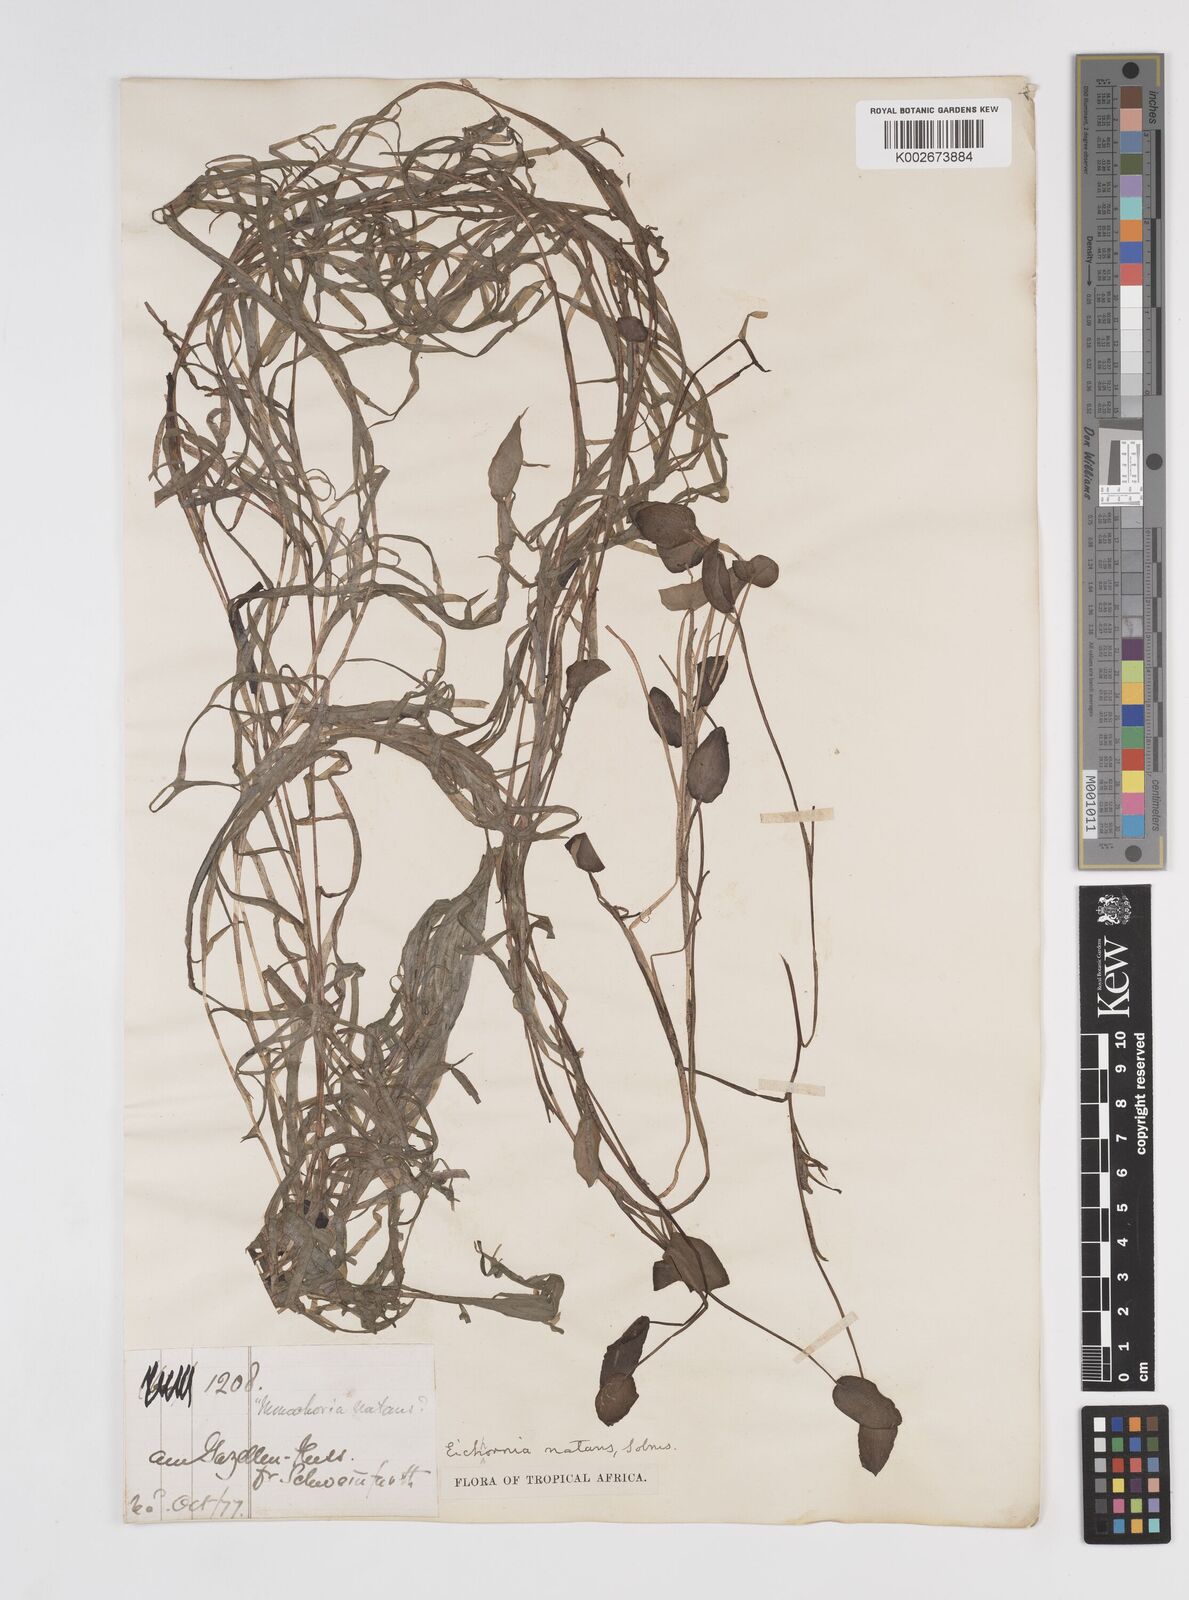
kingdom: Plantae
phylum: Tracheophyta
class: Liliopsida
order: Commelinales
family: Pontederiaceae
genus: Pontederia
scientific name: Pontederia diversifolia
